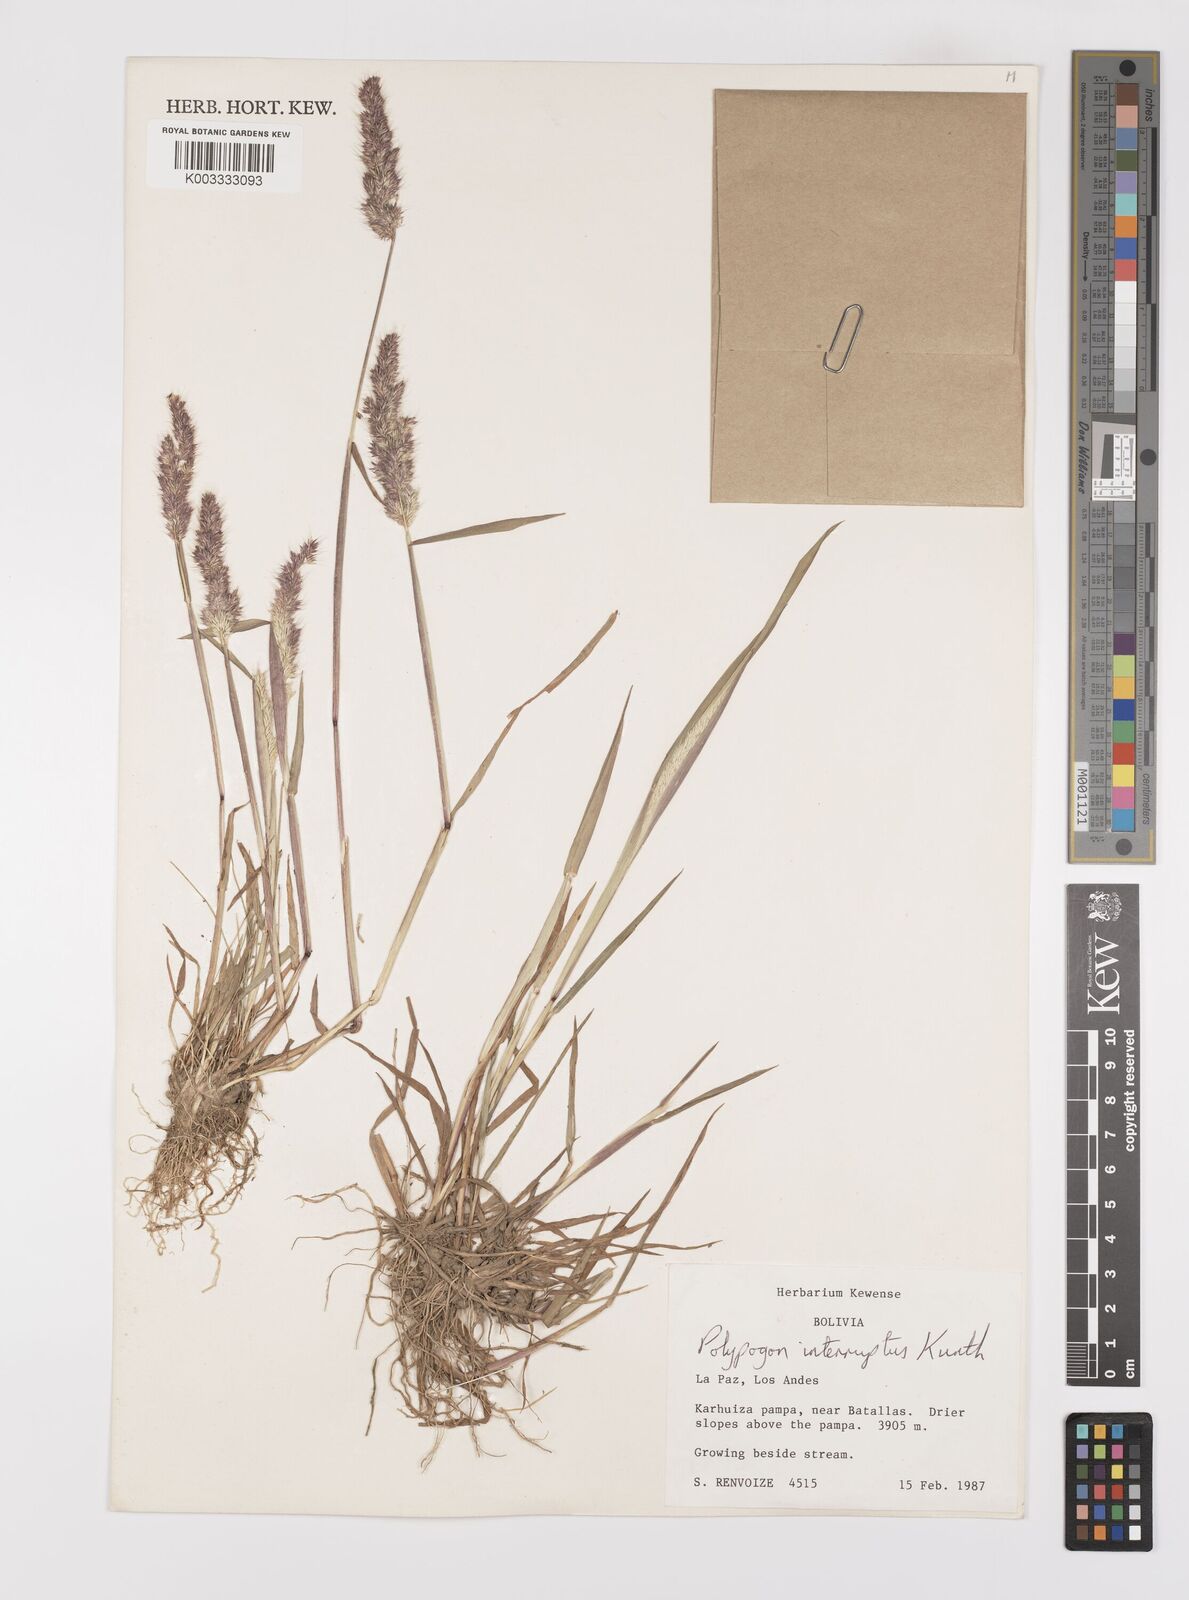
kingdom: Plantae
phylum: Tracheophyta
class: Liliopsida
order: Poales
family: Poaceae
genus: Polypogon
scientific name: Polypogon interruptus
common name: Ditch polypogon
